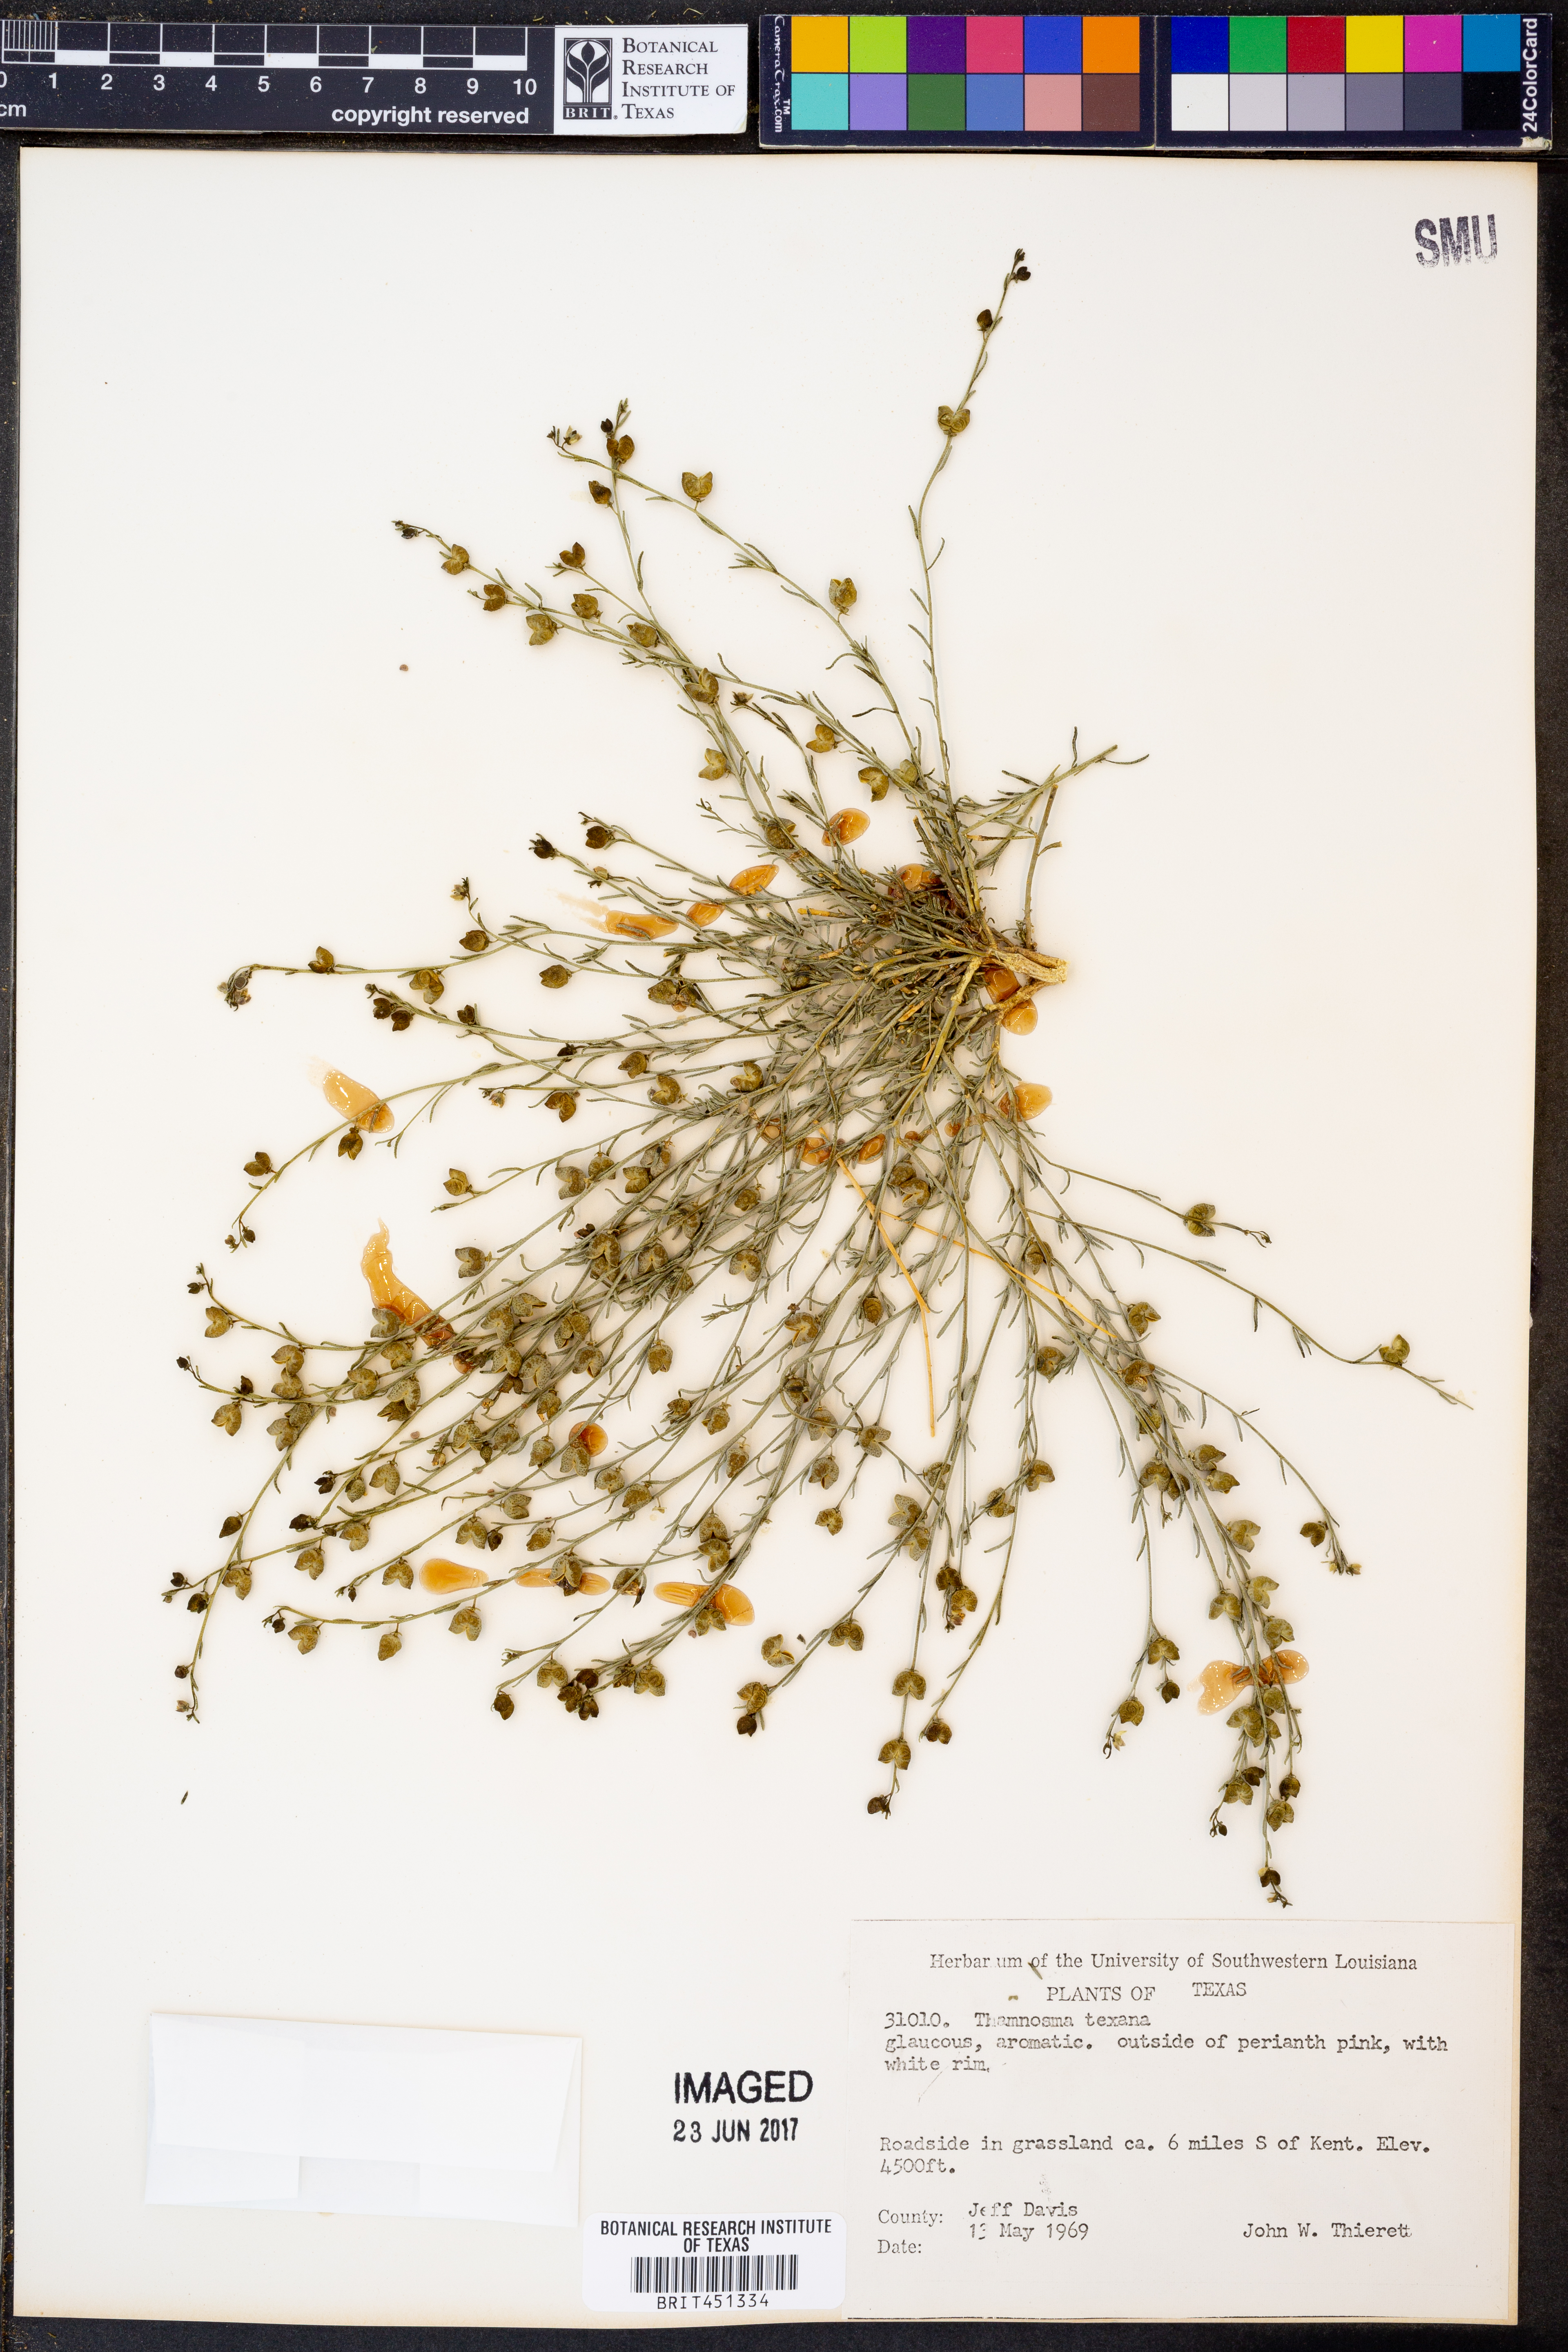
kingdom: Plantae
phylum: Tracheophyta
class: Magnoliopsida
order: Sapindales
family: Rutaceae
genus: Thamnosma
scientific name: Thamnosma texana
